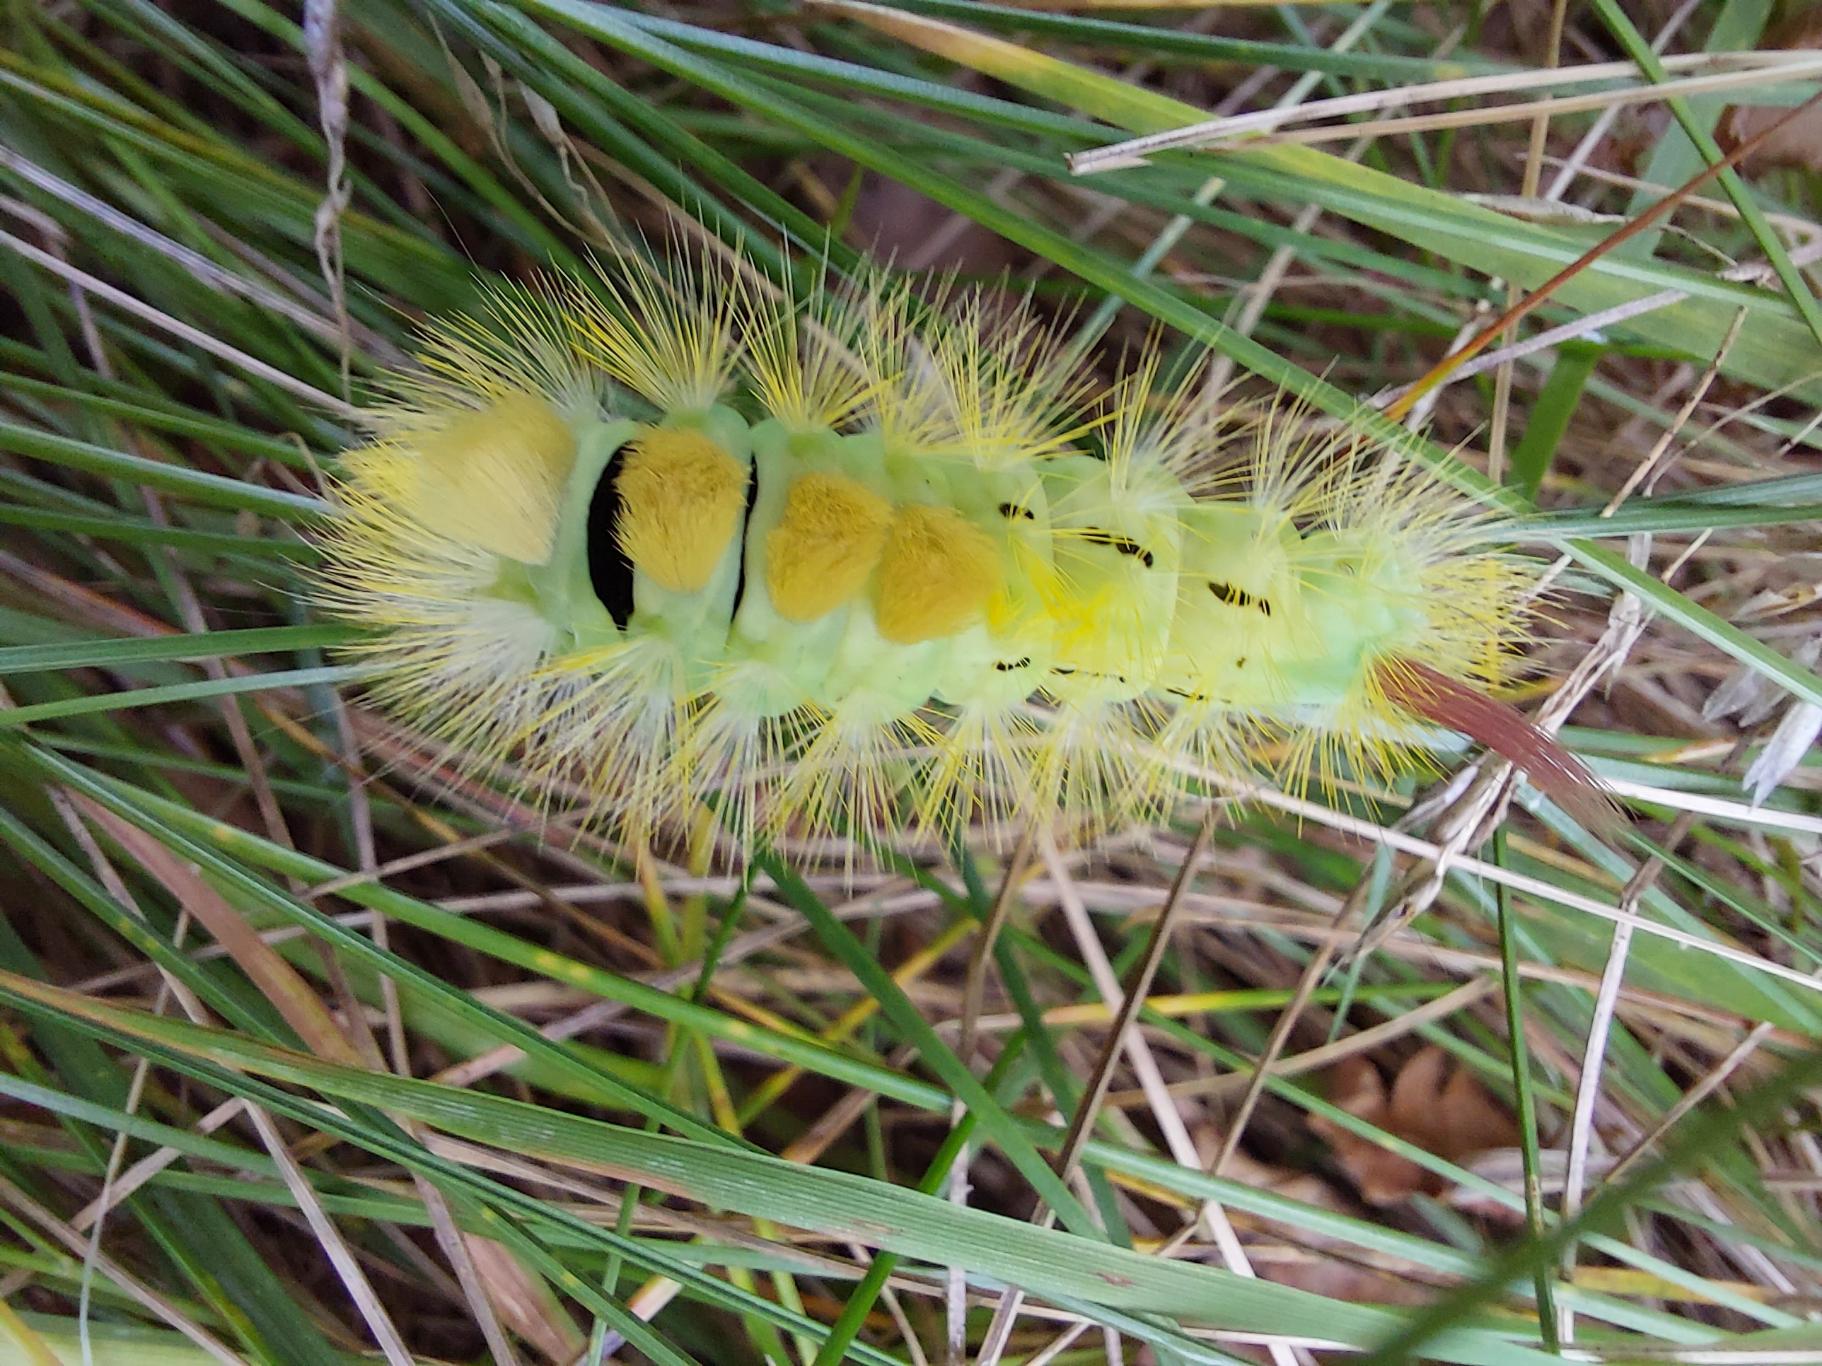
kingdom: Animalia
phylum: Arthropoda
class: Insecta
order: Lepidoptera
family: Erebidae
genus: Calliteara
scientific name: Calliteara pudibunda
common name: Bøgenonne
